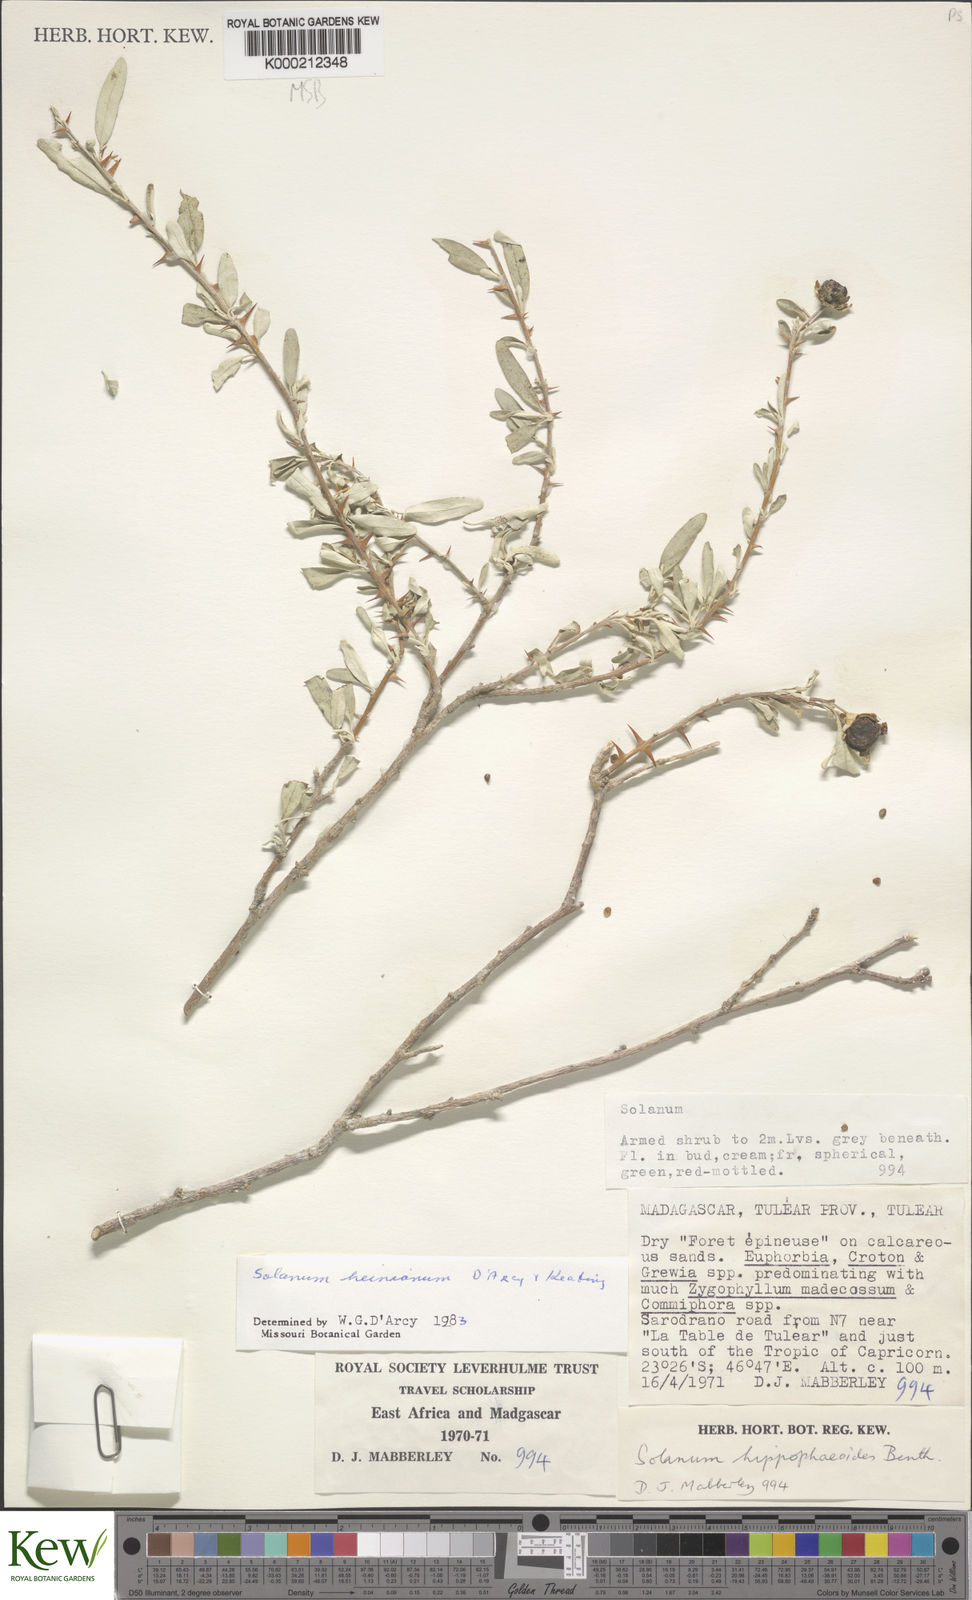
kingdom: Plantae
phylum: Tracheophyta
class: Magnoliopsida
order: Solanales
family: Solanaceae
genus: Solanum
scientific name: Solanum heinianum
